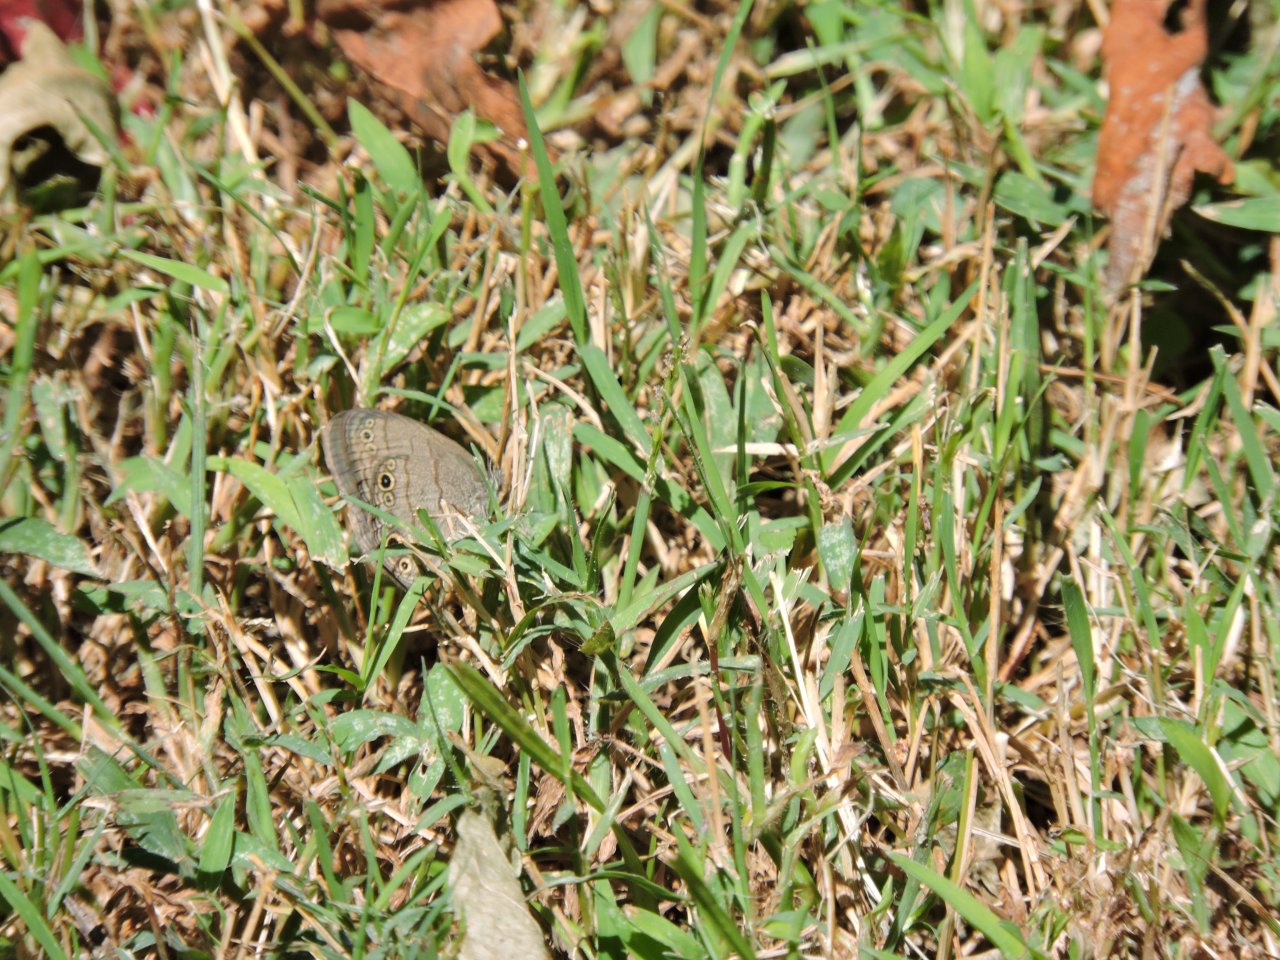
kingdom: Animalia
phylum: Arthropoda
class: Insecta
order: Lepidoptera
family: Nymphalidae
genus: Hermeuptychia
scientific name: Hermeuptychia hermes
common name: Carolina Satyr
